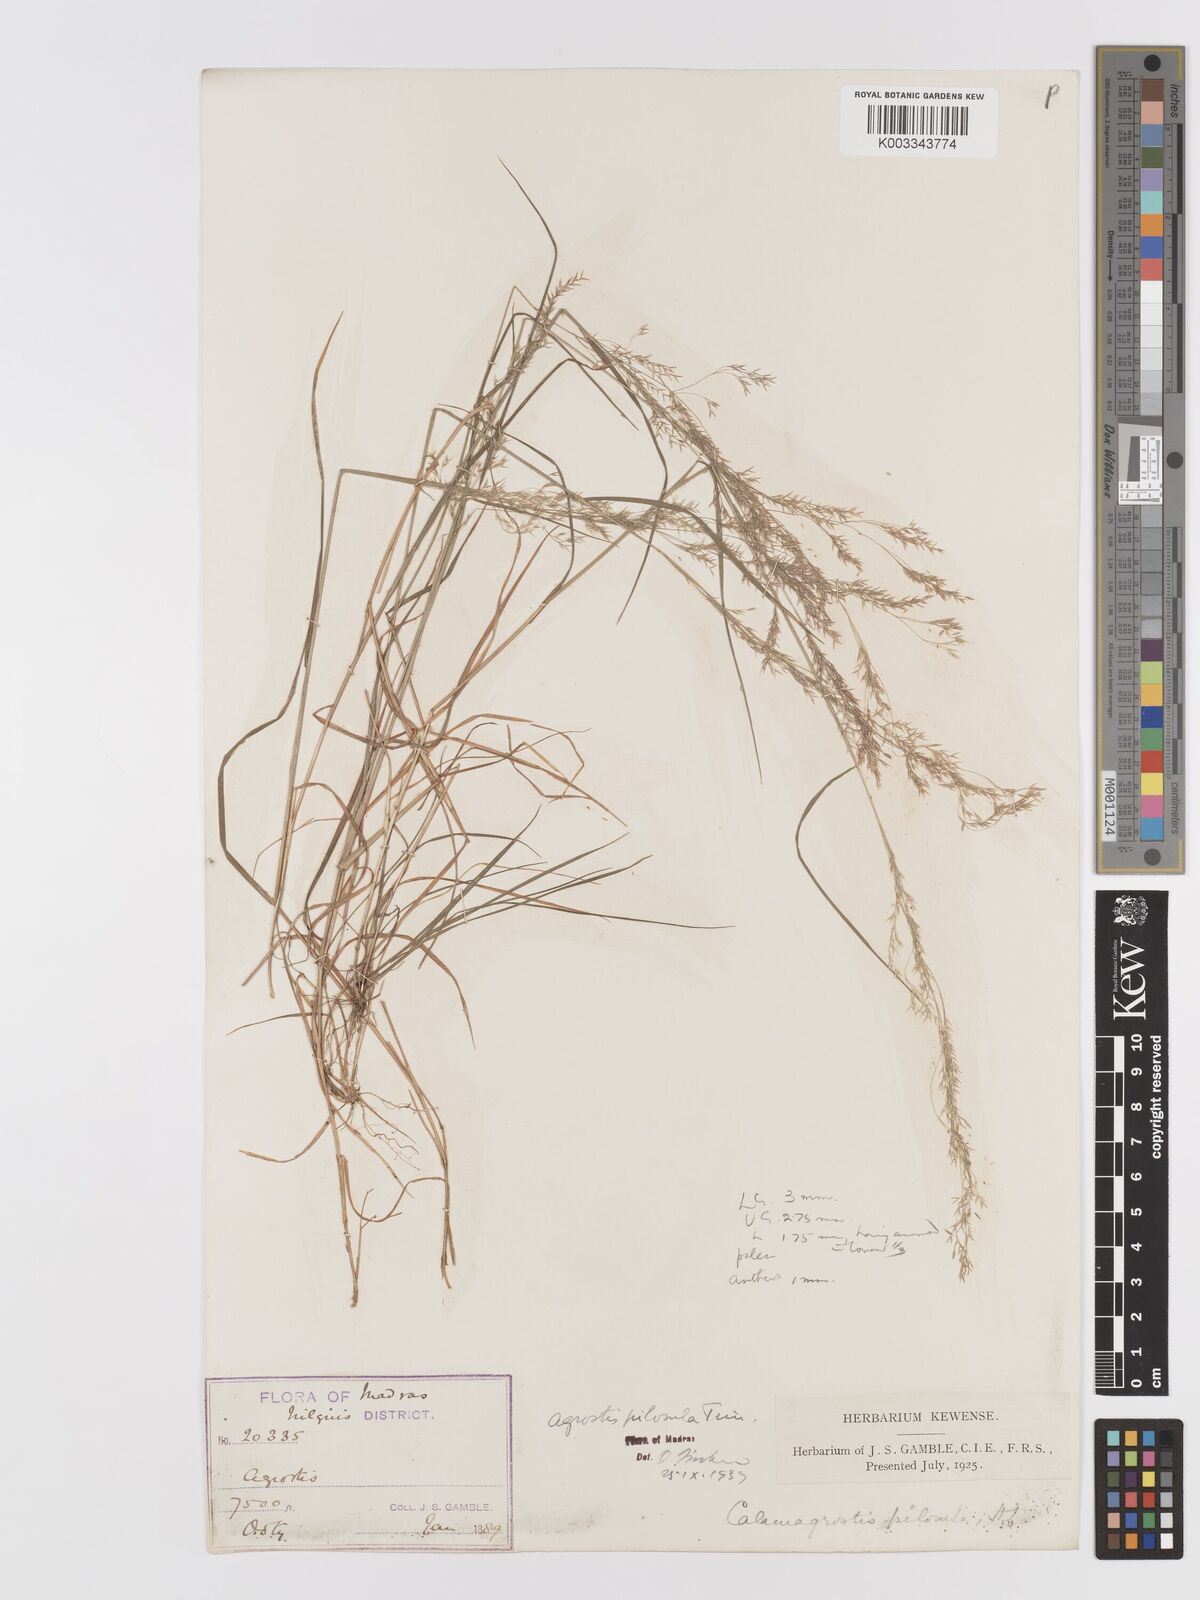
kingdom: Plantae
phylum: Tracheophyta
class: Liliopsida
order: Poales
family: Poaceae
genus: Agrostis
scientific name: Agrostis pilosula
